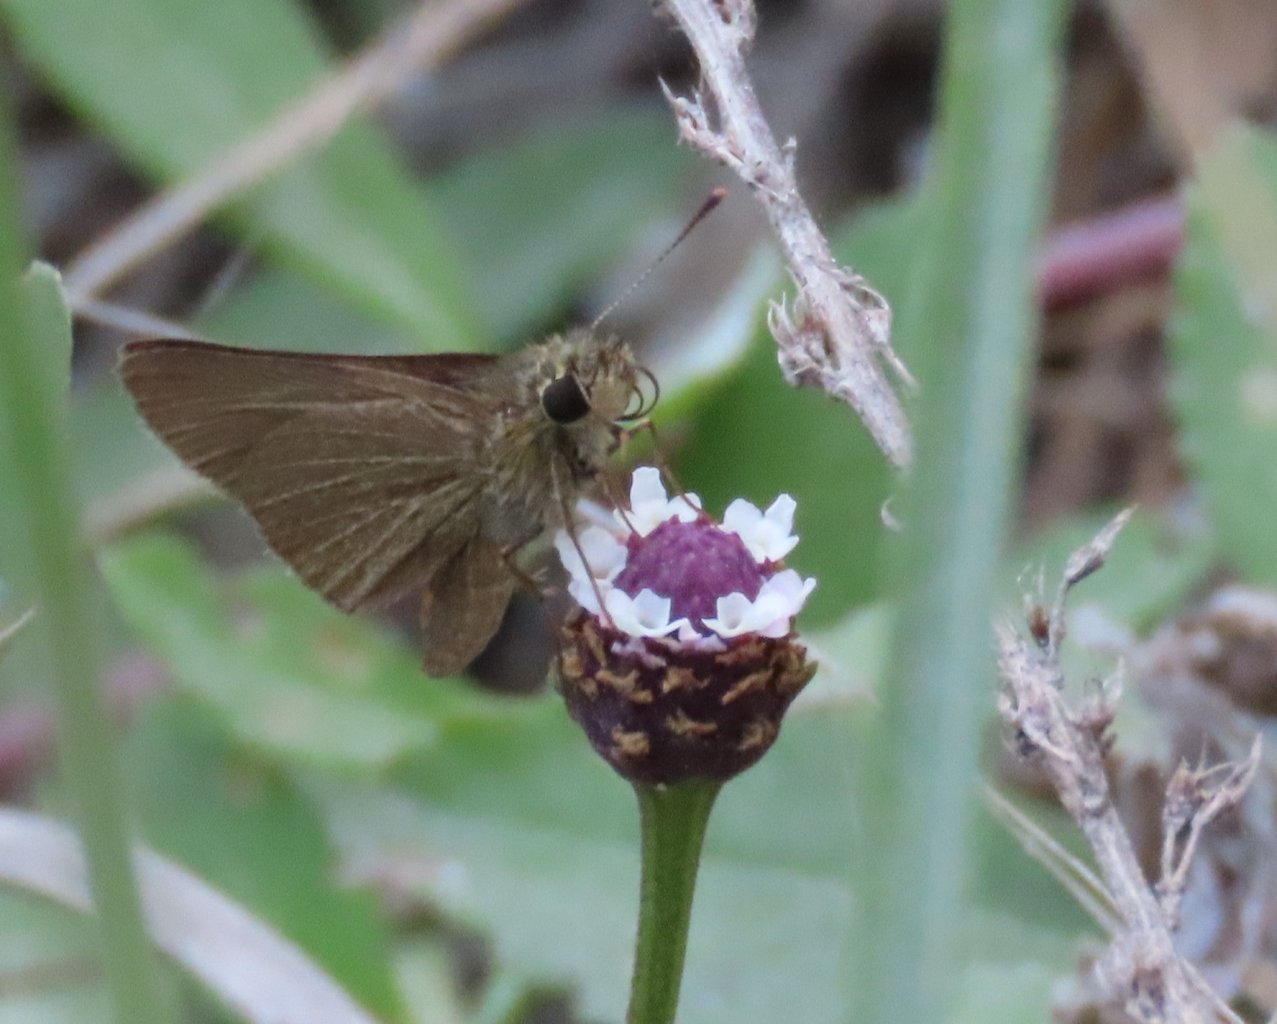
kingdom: Animalia
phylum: Arthropoda
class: Insecta
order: Lepidoptera
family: Hesperiidae
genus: Nastra
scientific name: Nastra lherminier
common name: Swarthy Skipper
